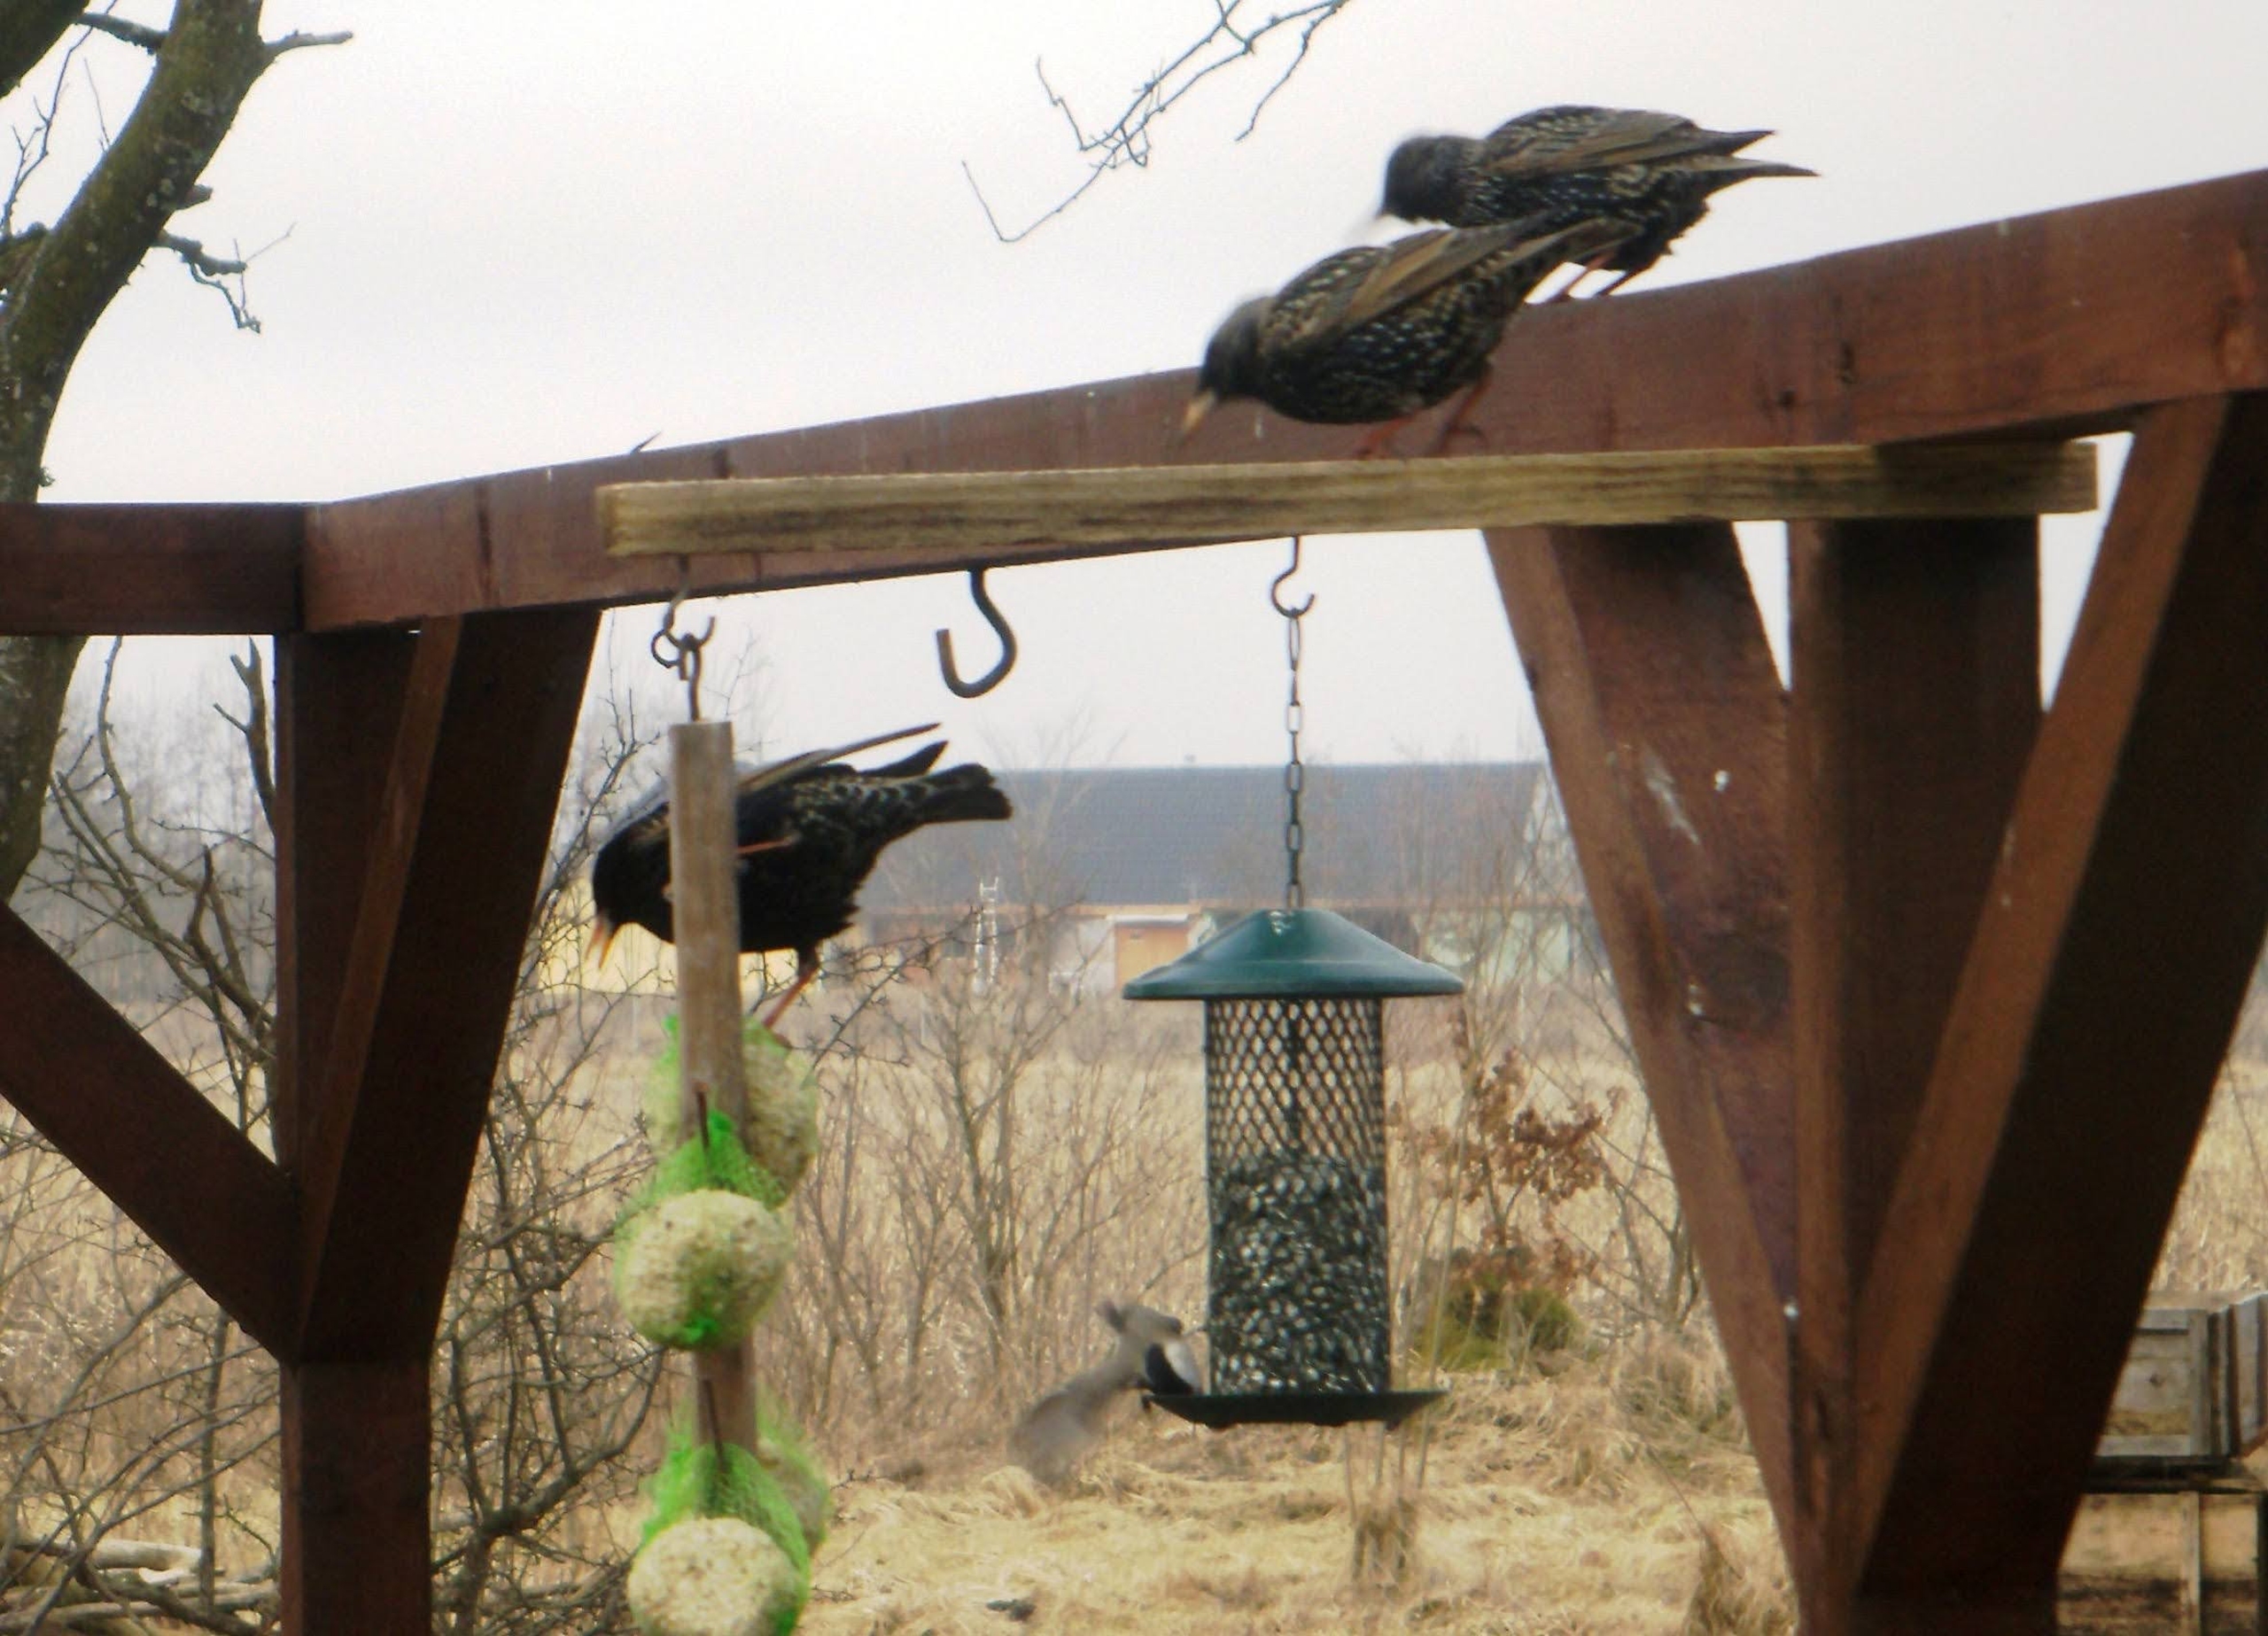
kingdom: Animalia
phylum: Chordata
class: Aves
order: Passeriformes
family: Sturnidae
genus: Sturnus
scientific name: Sturnus vulgaris
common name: Stær
